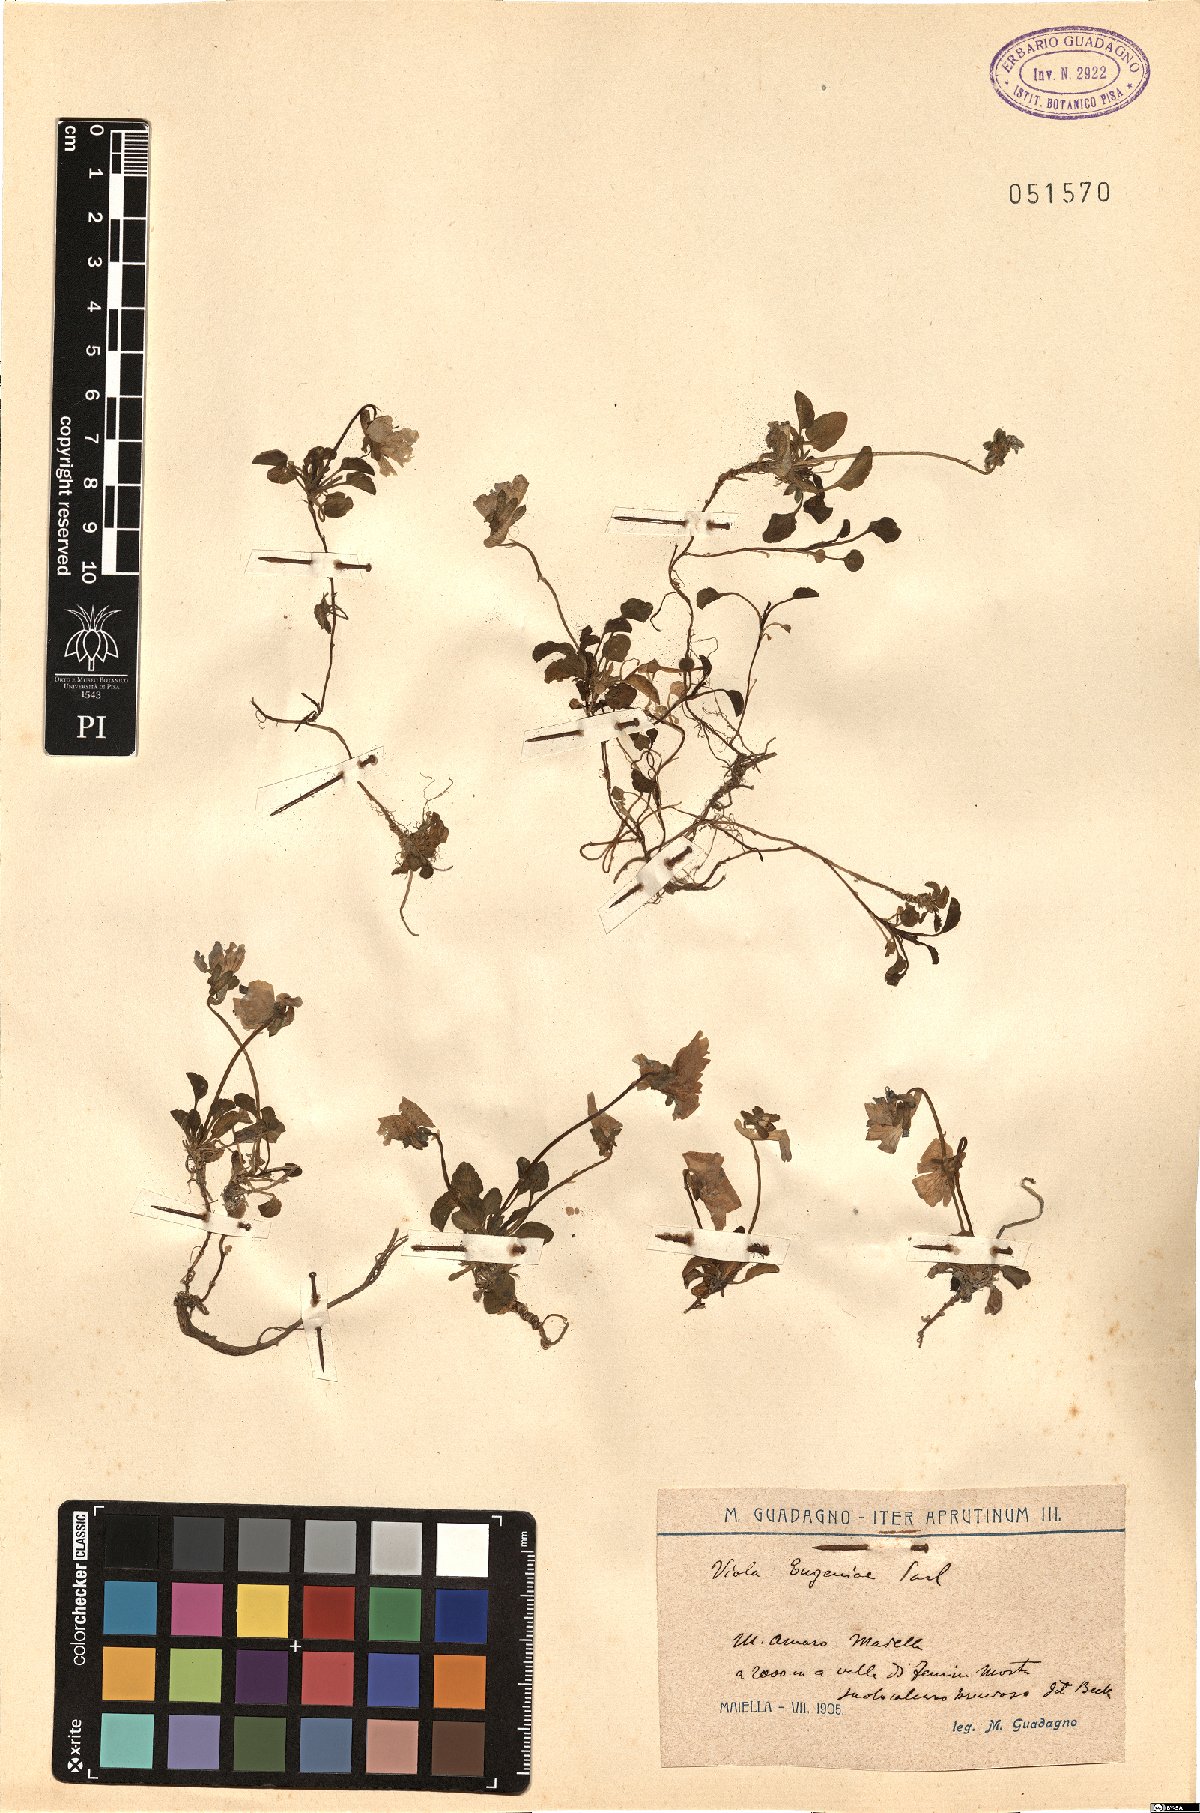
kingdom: Plantae
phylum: Tracheophyta
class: Magnoliopsida
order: Malpighiales
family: Violaceae
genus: Viola
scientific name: Viola eugeniae
